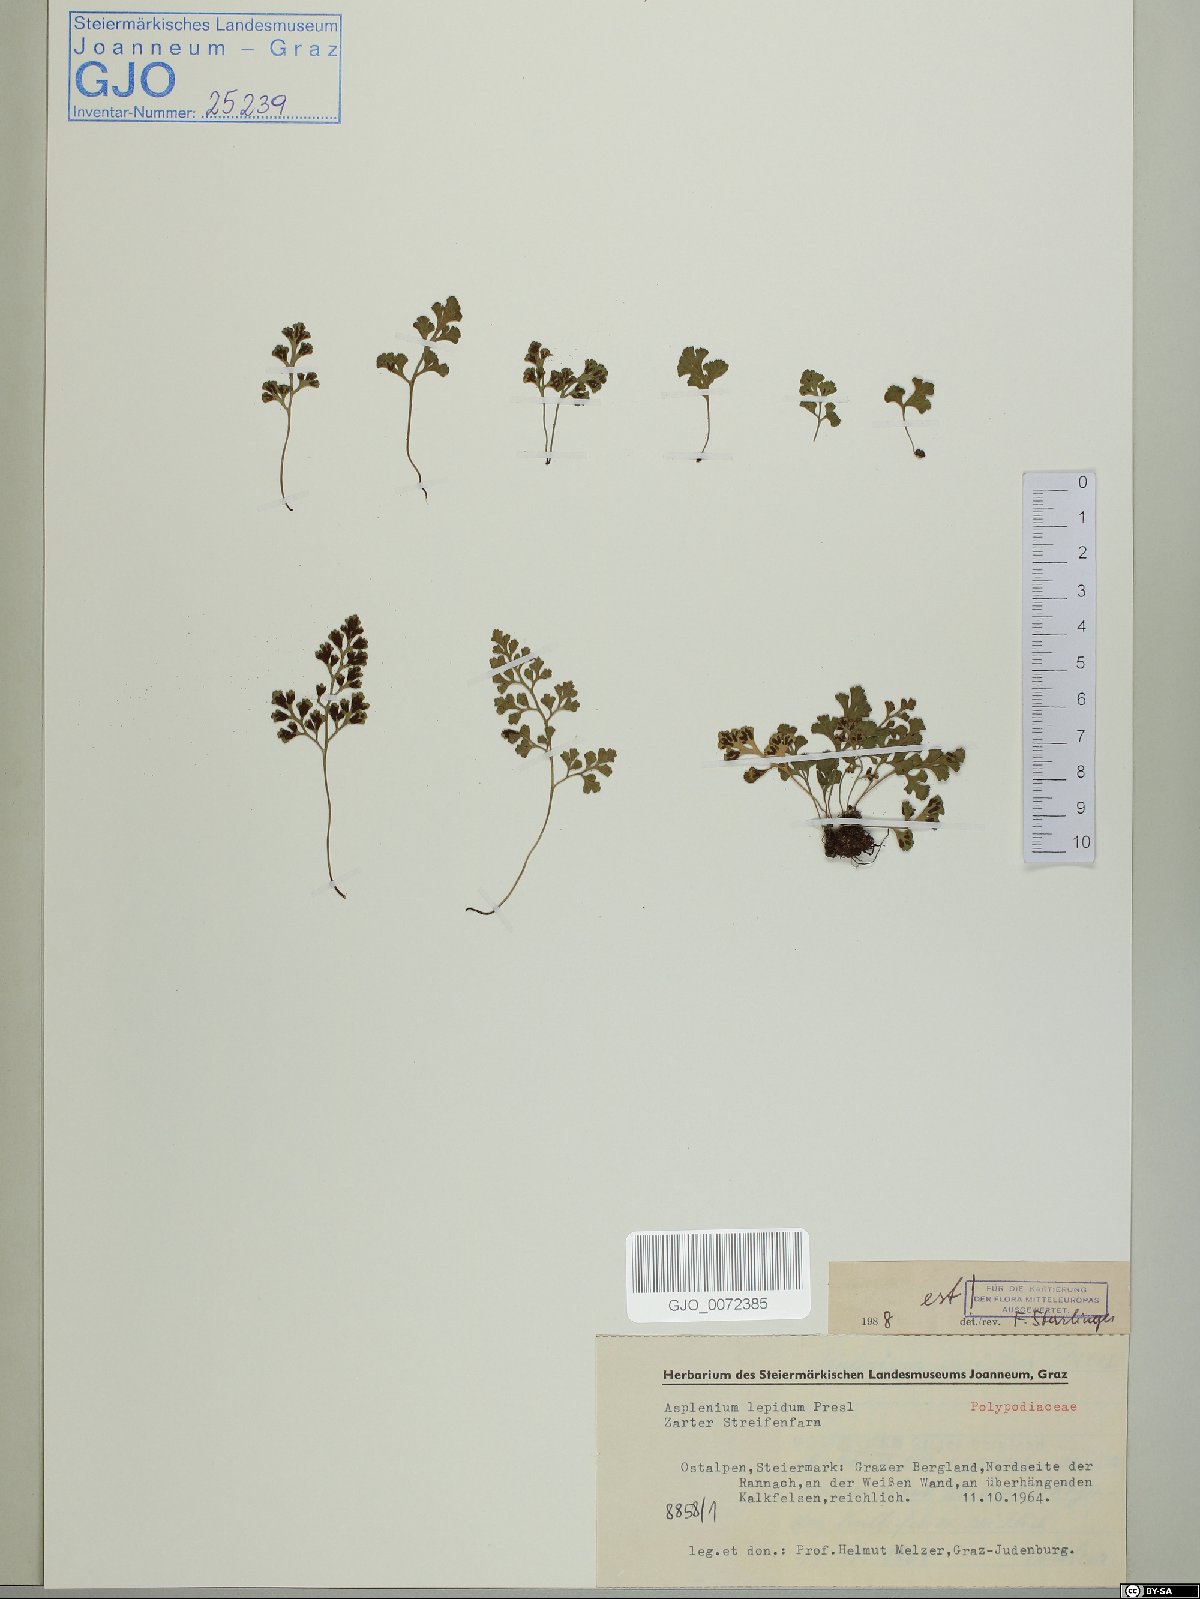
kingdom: Plantae
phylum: Tracheophyta
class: Polypodiopsida
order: Polypodiales
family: Aspleniaceae
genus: Asplenium
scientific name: Asplenium lepidum
